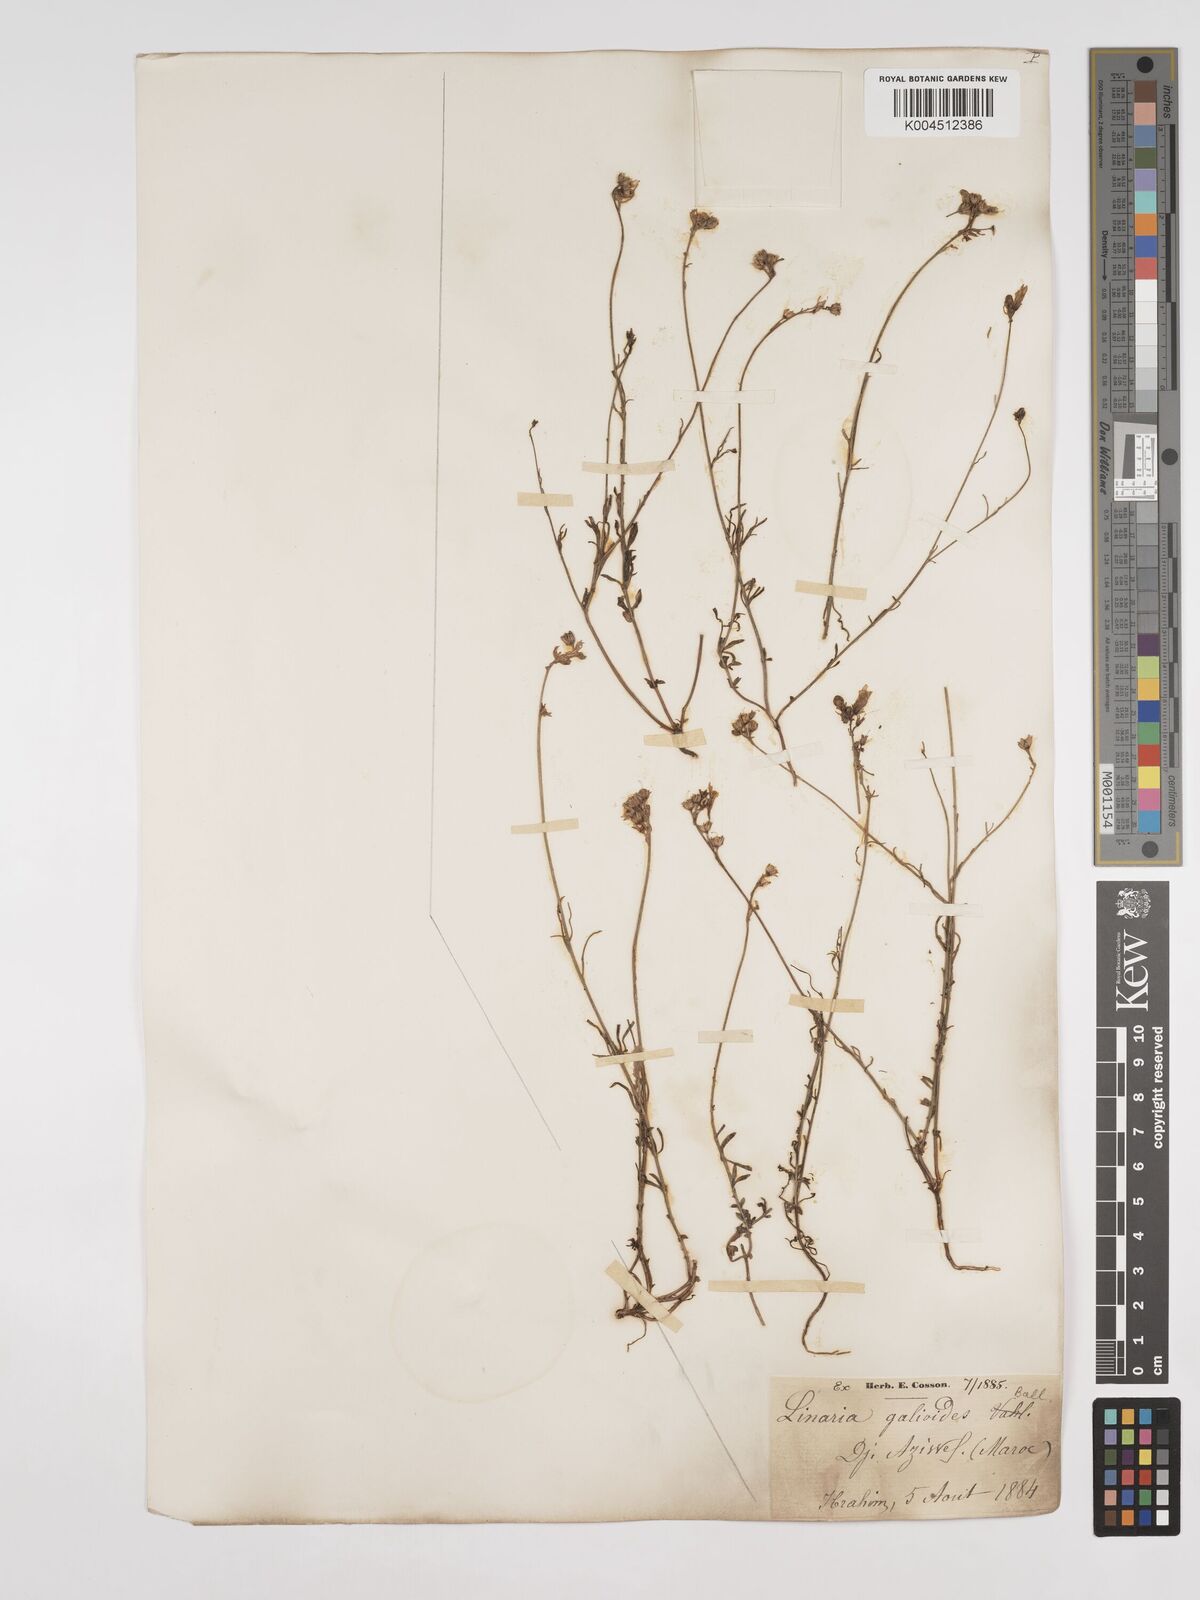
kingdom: Plantae
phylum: Tracheophyta
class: Magnoliopsida
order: Lamiales
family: Plantaginaceae
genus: Linaria
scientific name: Linaria
